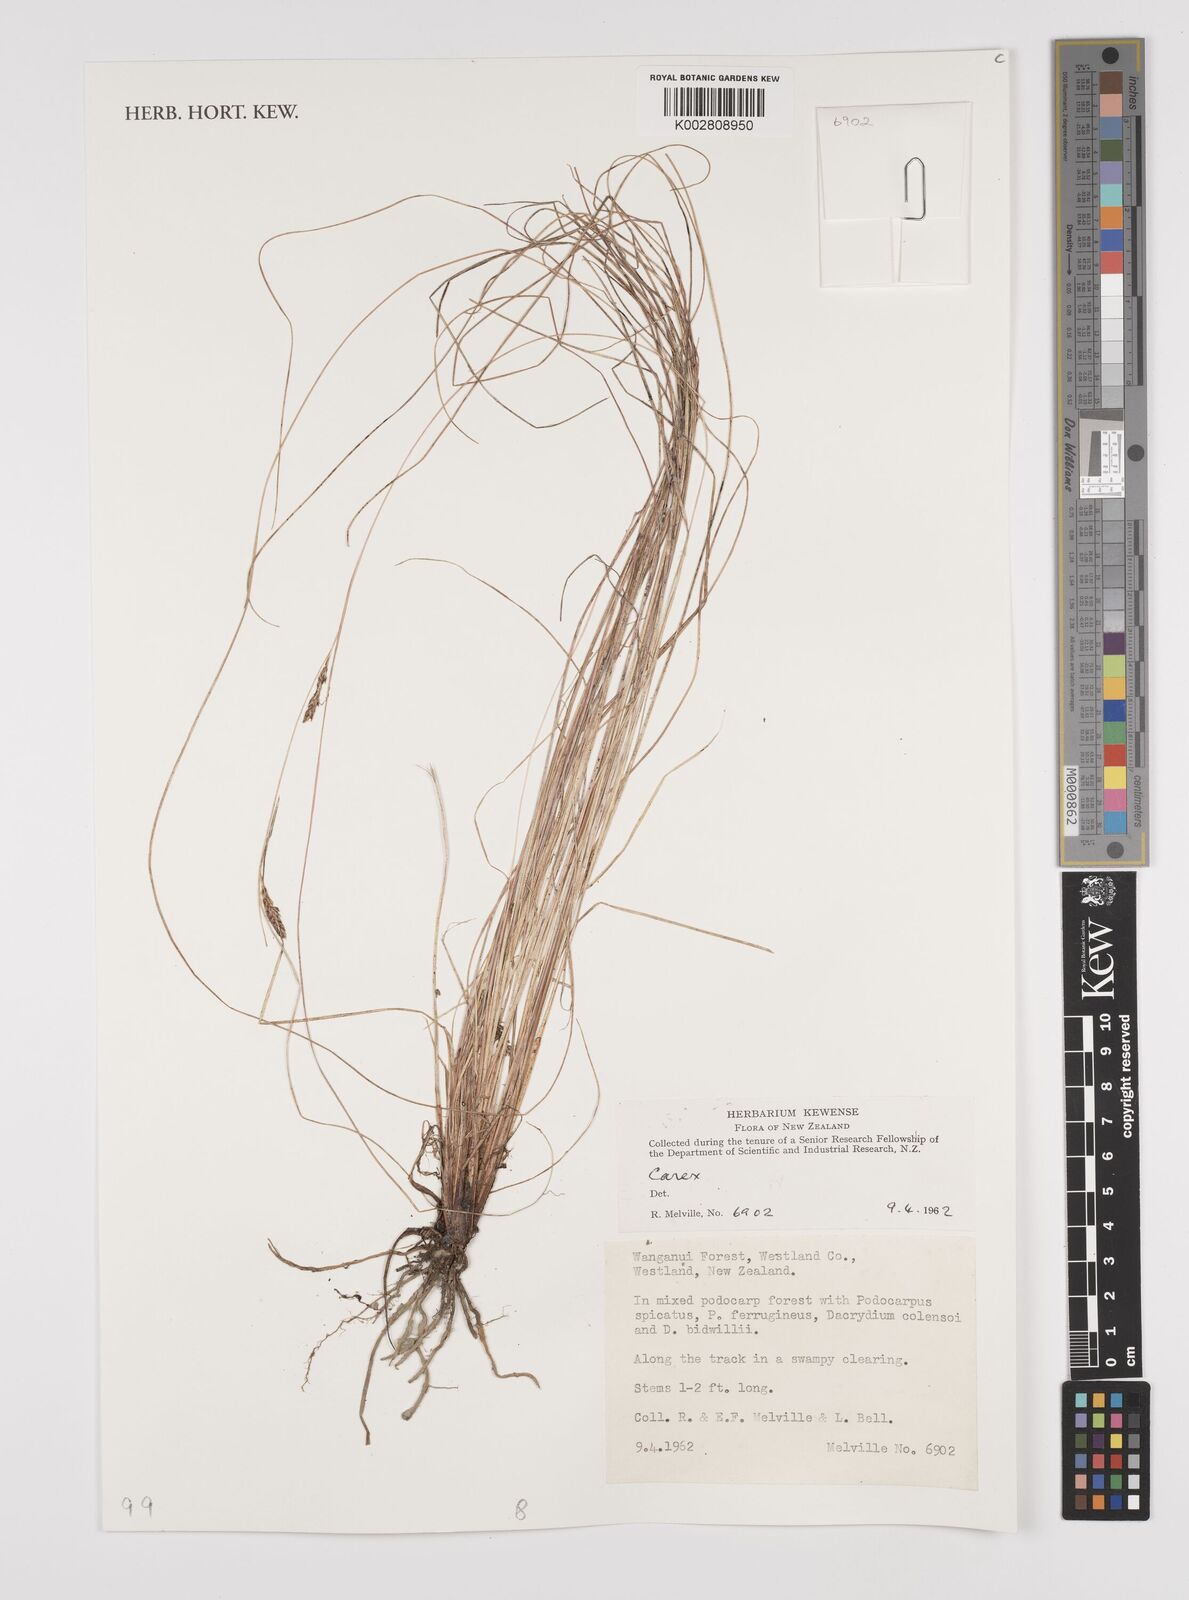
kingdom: Plantae
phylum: Tracheophyta
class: Liliopsida
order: Poales
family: Cyperaceae
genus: Carex
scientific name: Carex
